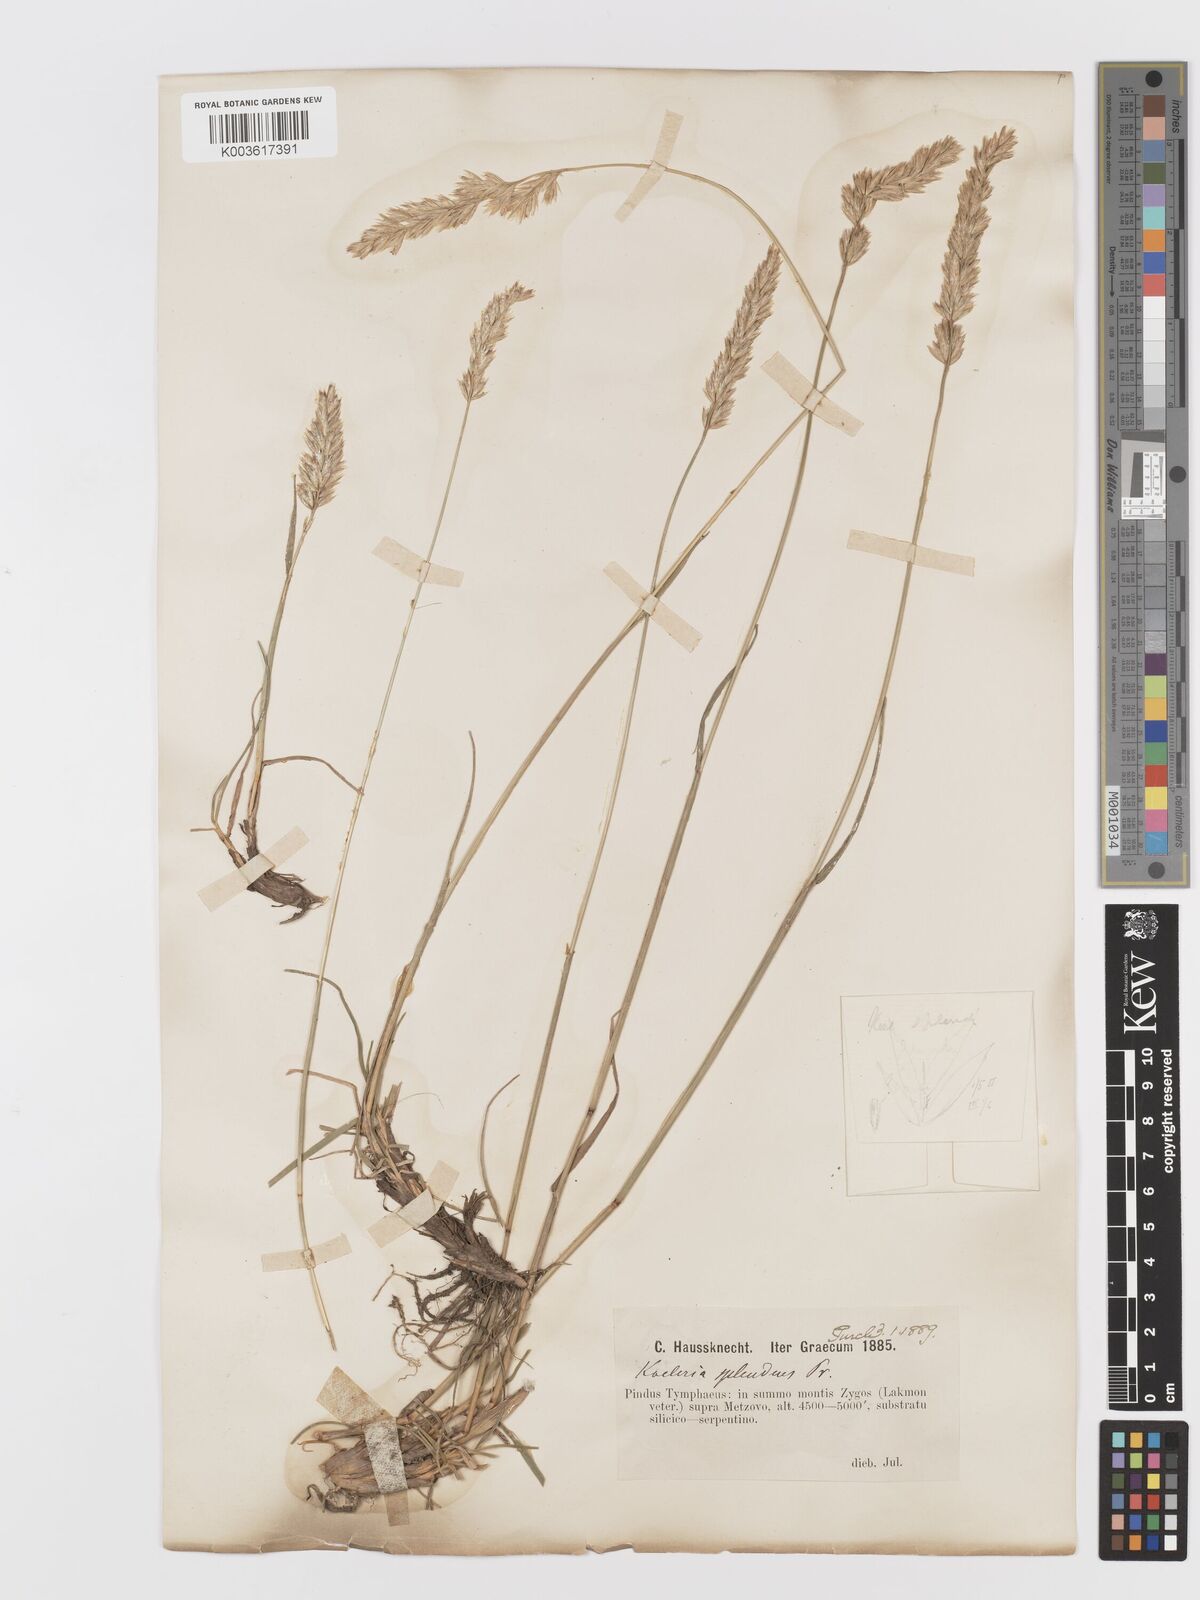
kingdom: Plantae
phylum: Tracheophyta
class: Liliopsida
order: Poales
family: Poaceae
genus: Koeleria
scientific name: Koeleria splendens
